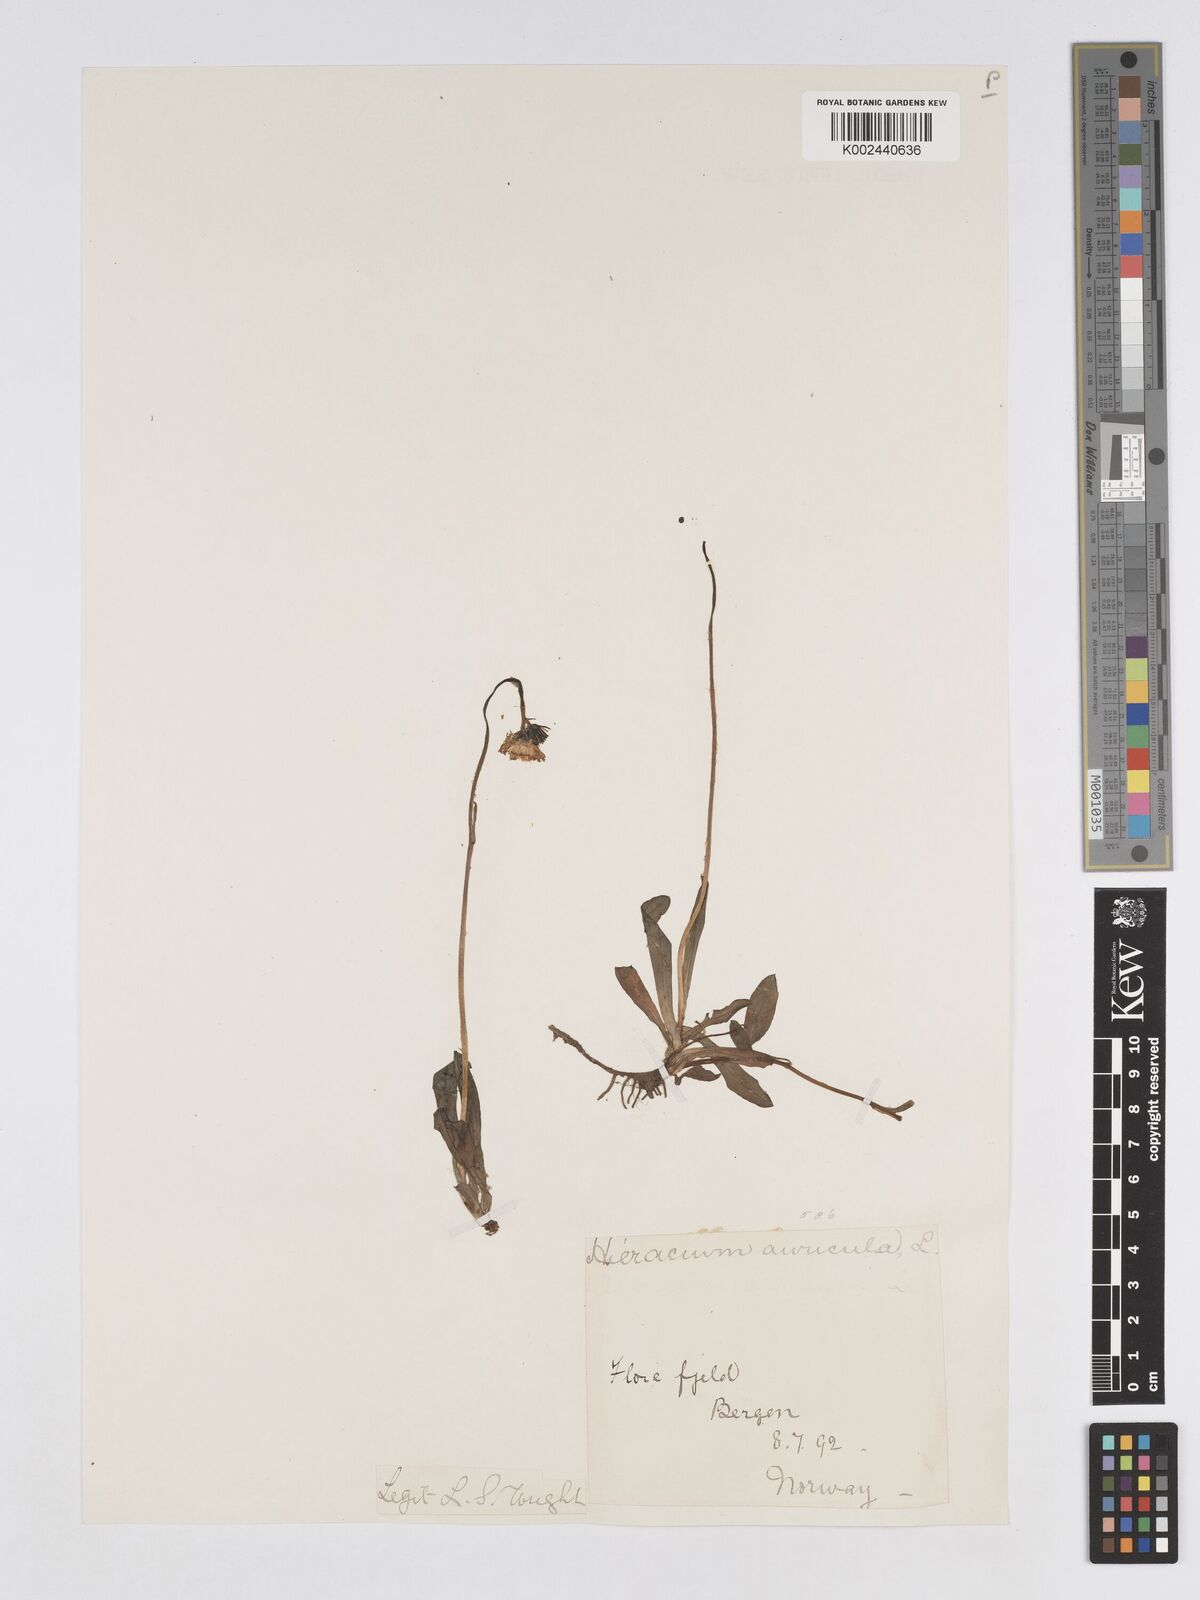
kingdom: Plantae
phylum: Tracheophyta
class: Magnoliopsida
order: Asterales
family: Asteraceae
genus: Pilosella
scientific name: Pilosella floribunda
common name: Glaucous hawkweed
